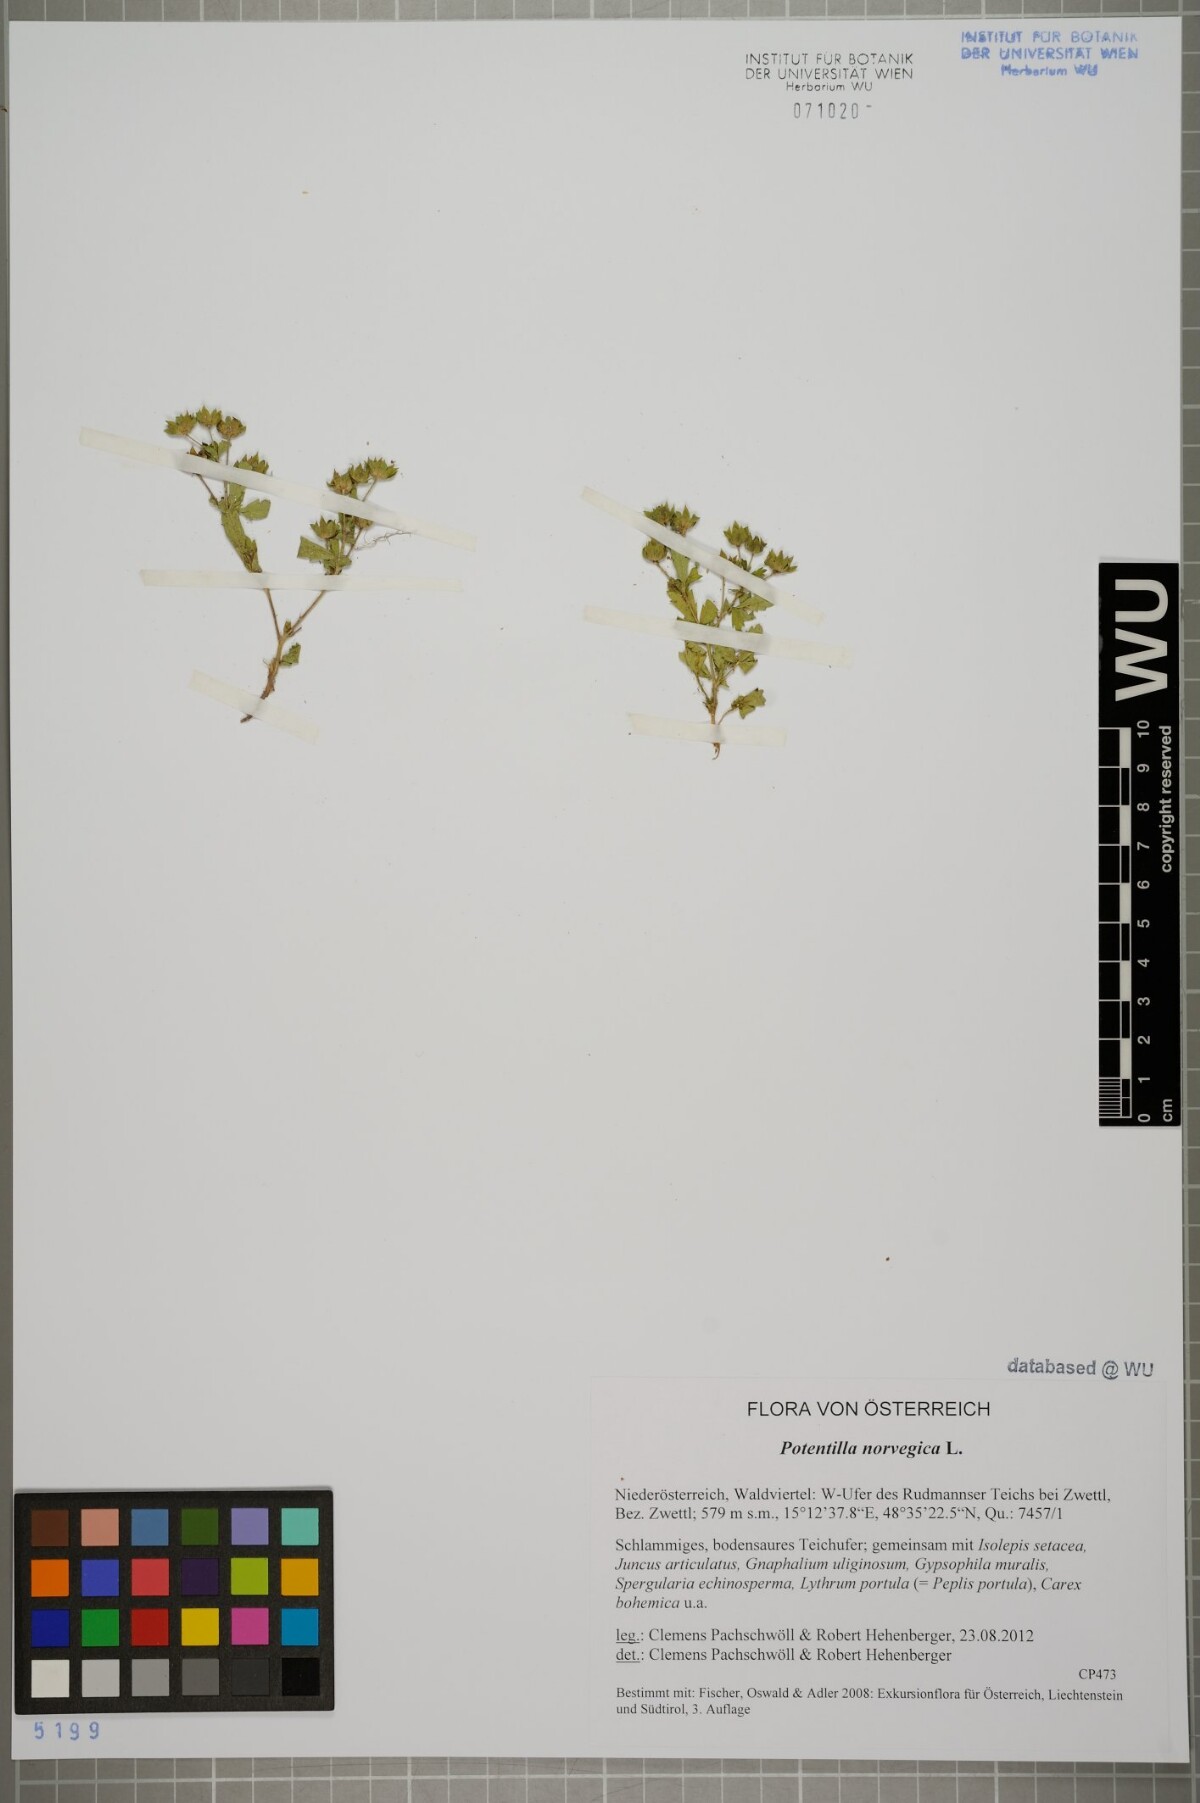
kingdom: Plantae
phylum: Tracheophyta
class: Magnoliopsida
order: Rosales
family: Rosaceae
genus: Potentilla
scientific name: Potentilla norvegica
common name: Ternate-leaved cinquefoil
